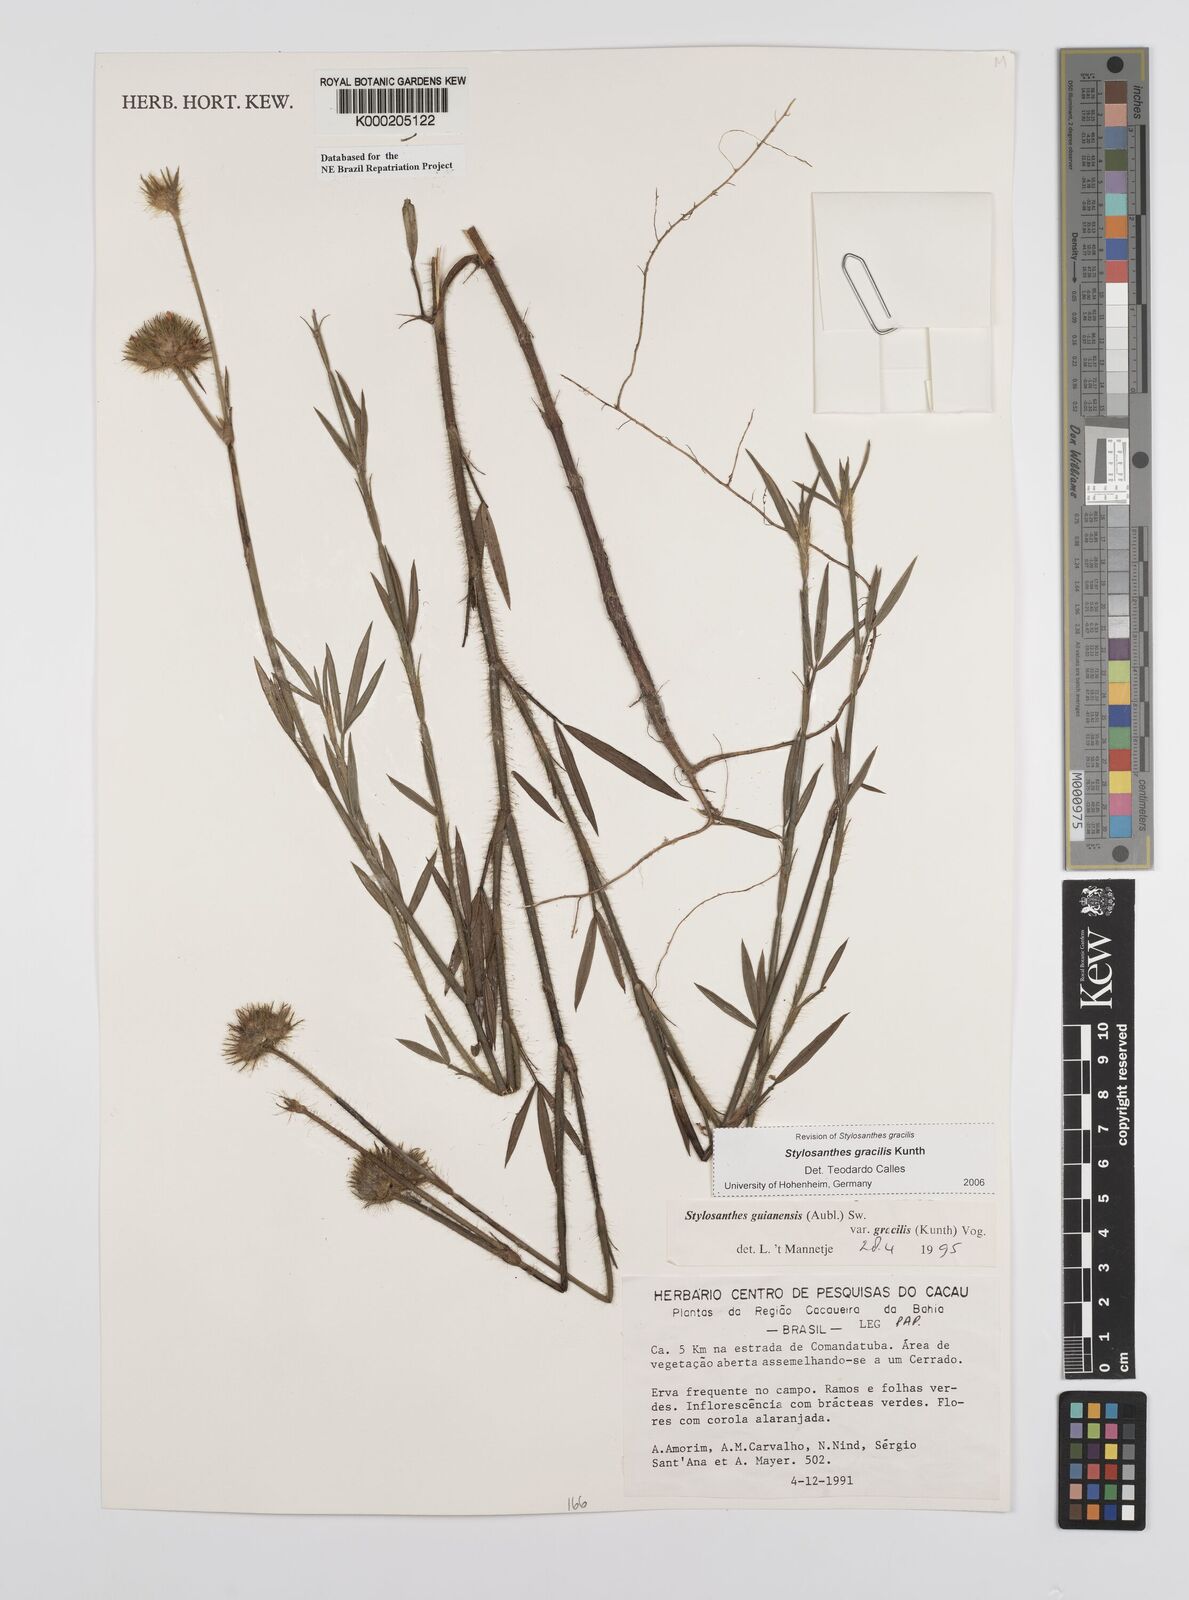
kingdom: Plantae
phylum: Tracheophyta
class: Magnoliopsida
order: Fabales
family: Fabaceae
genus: Stylosanthes
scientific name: Stylosanthes guianensis
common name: Pencil flower
